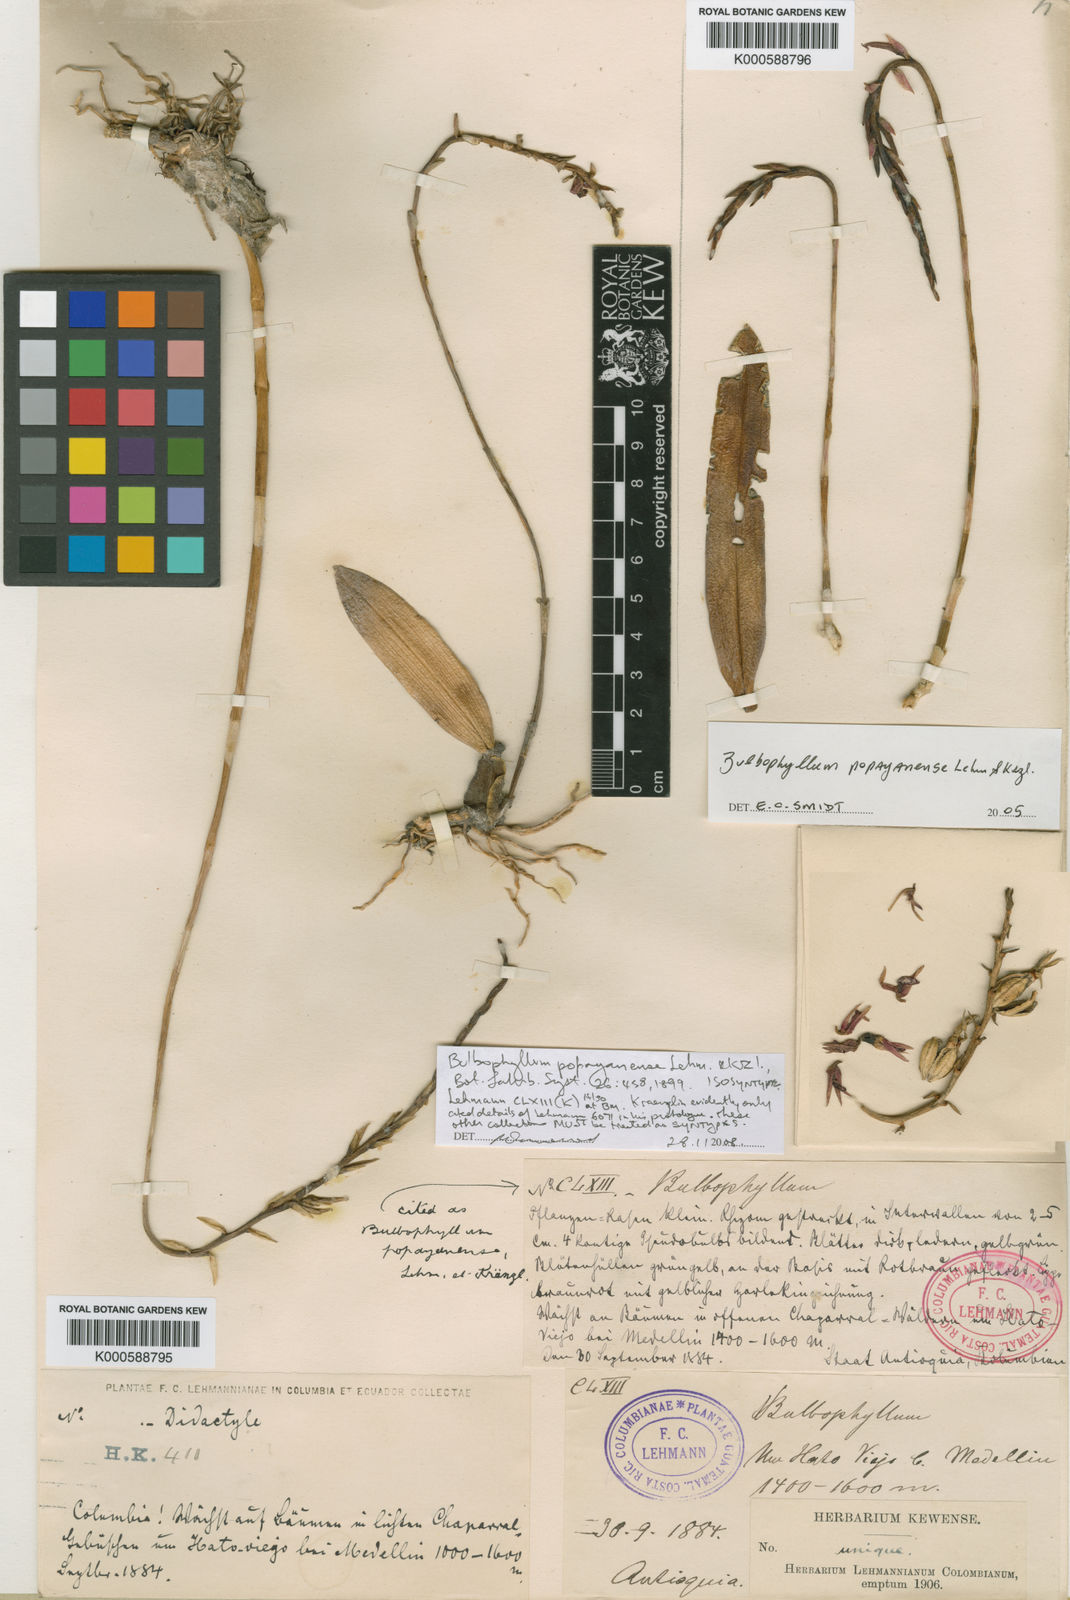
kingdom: Plantae
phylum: Tracheophyta
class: Liliopsida
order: Asparagales
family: Orchidaceae
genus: Bulbophyllum
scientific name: Bulbophyllum popayanense
